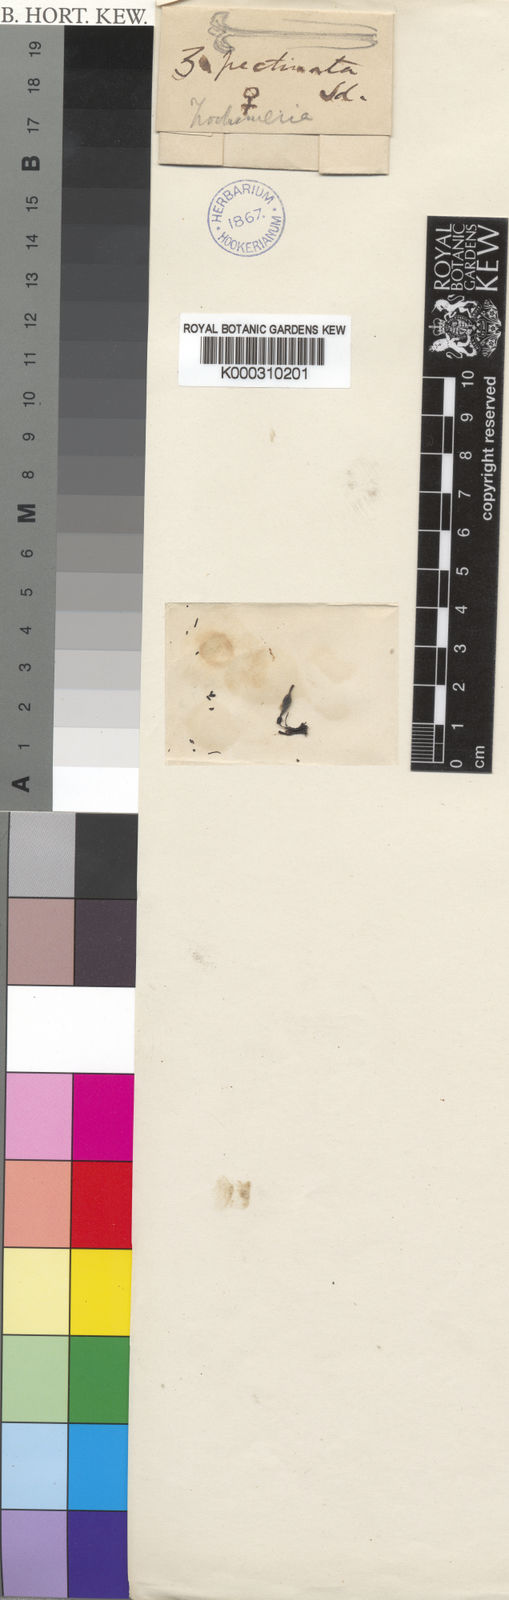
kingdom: Plantae
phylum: Tracheophyta
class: Magnoliopsida
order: Cucurbitales
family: Cucurbitaceae
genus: Trochomeria
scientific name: Trochomeria debilis
